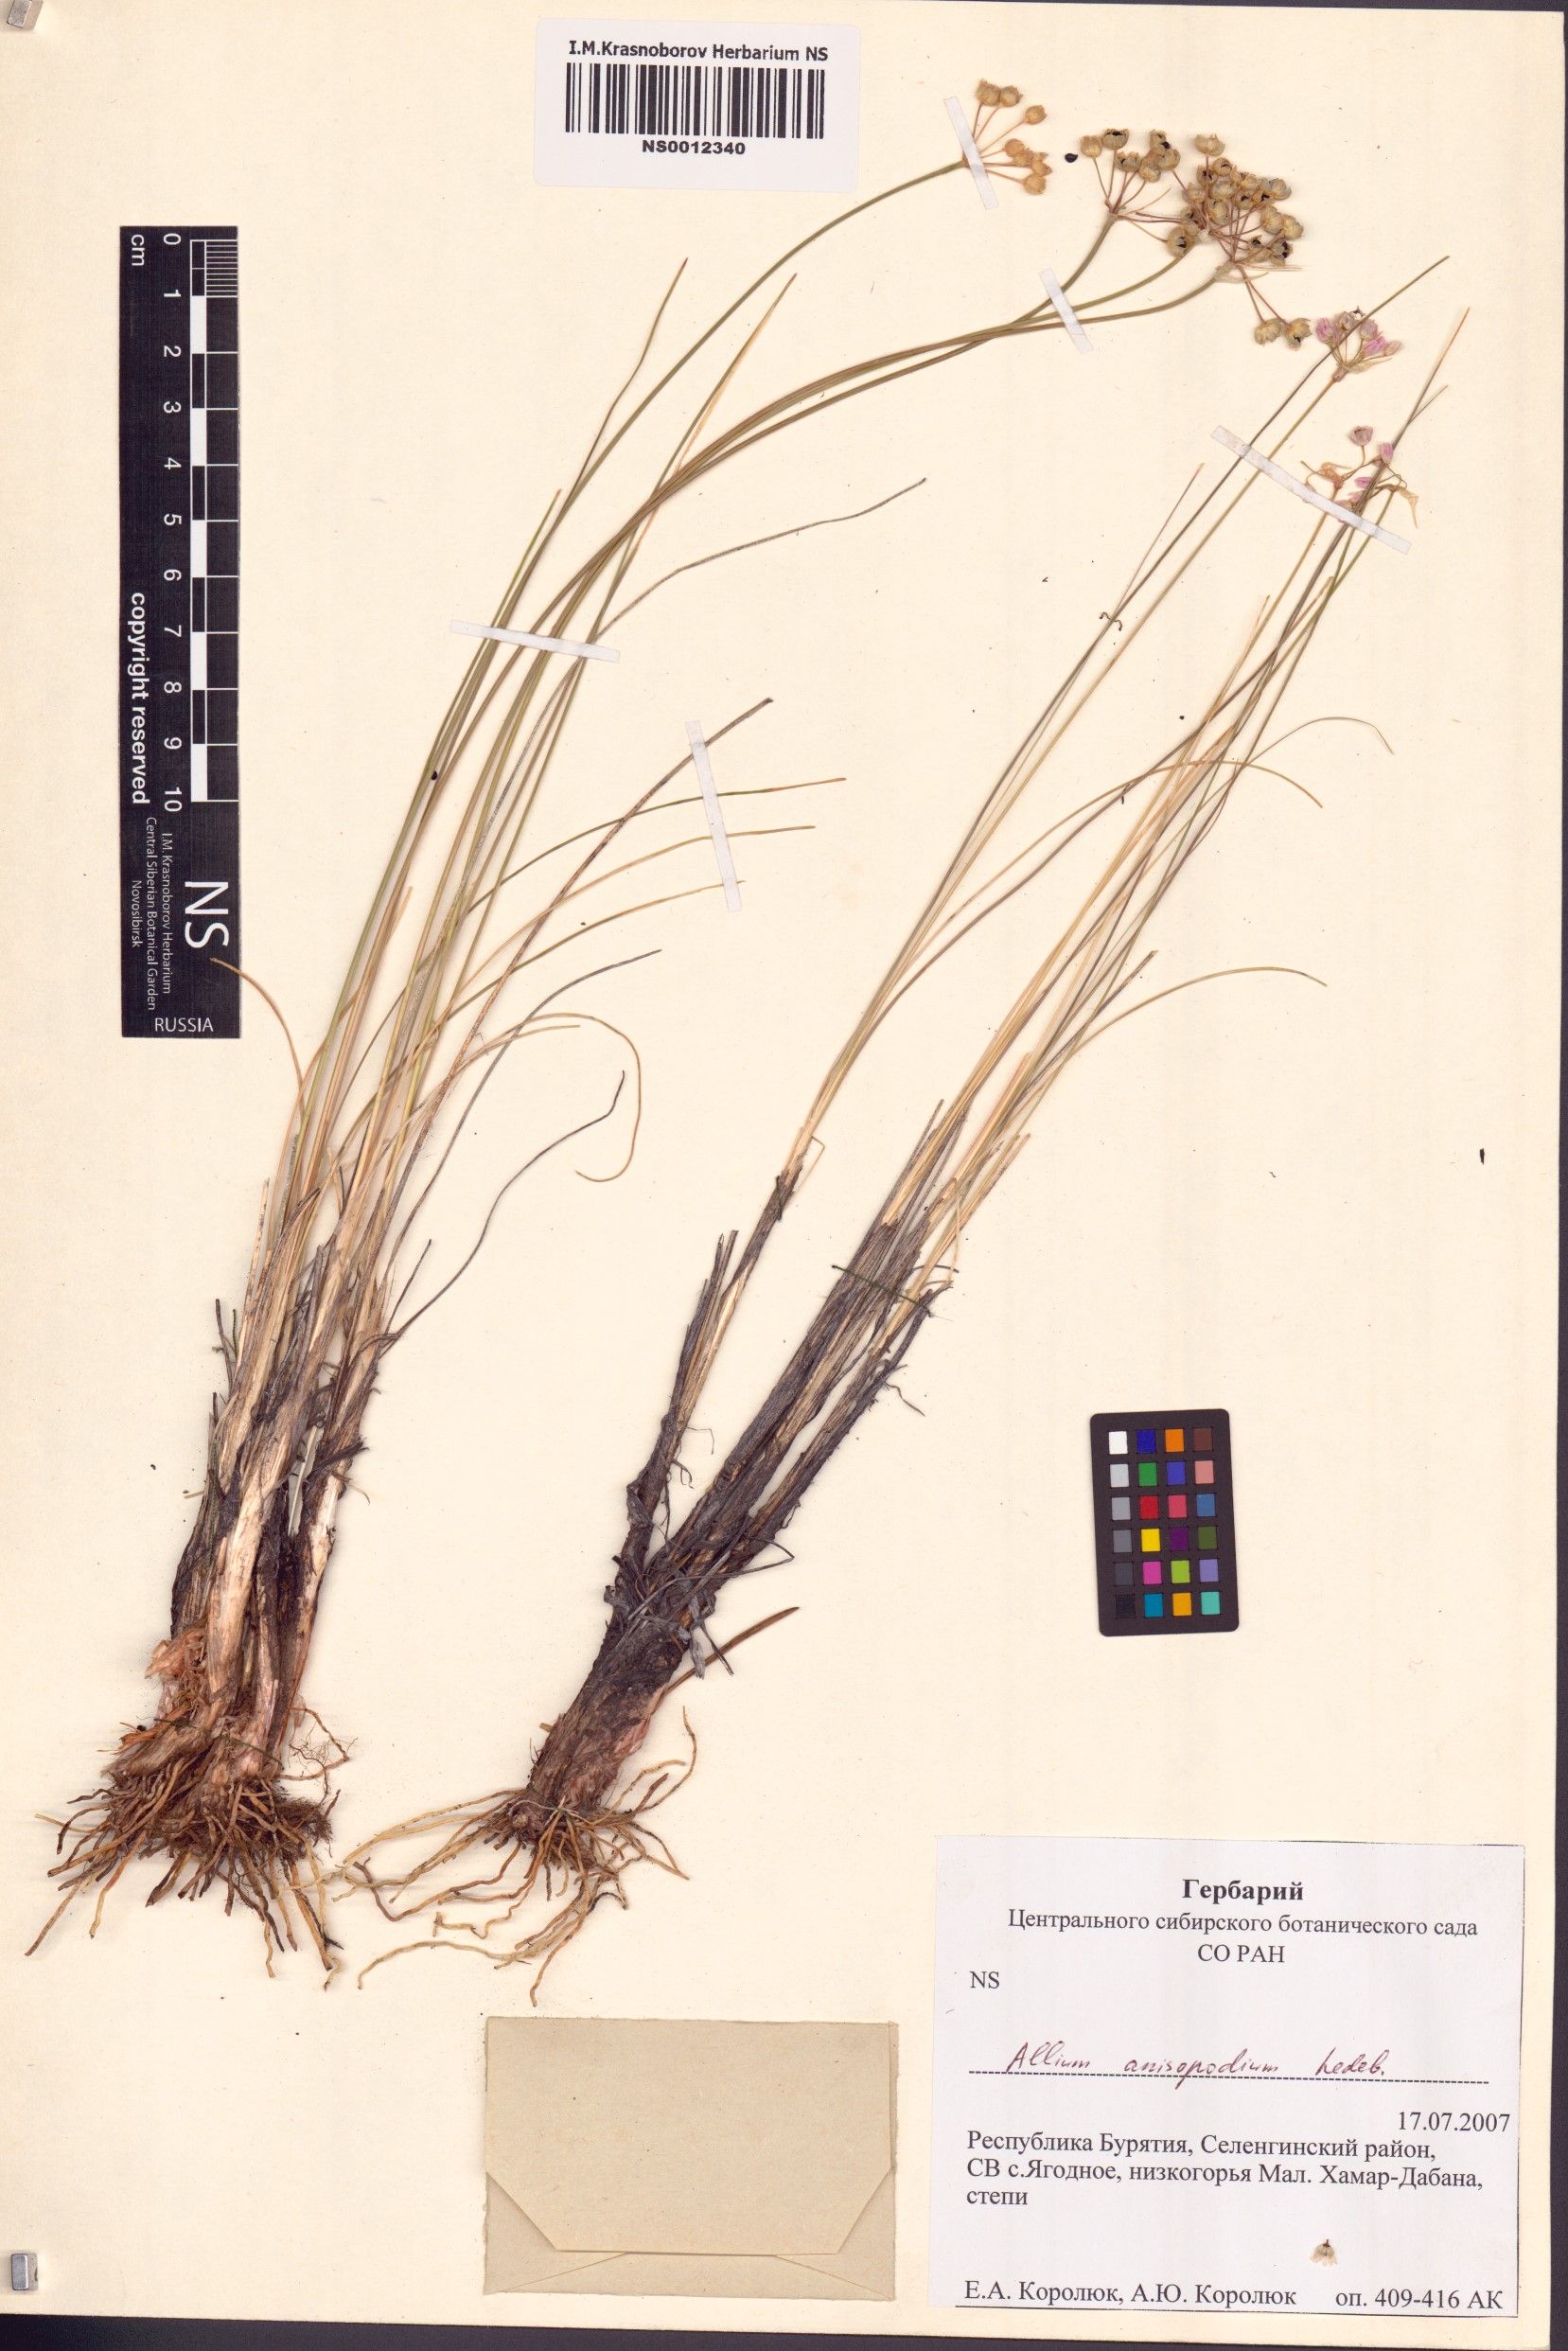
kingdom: Plantae
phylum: Tracheophyta
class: Liliopsida
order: Asparagales
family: Amaryllidaceae
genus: Allium
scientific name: Allium anisopodium
